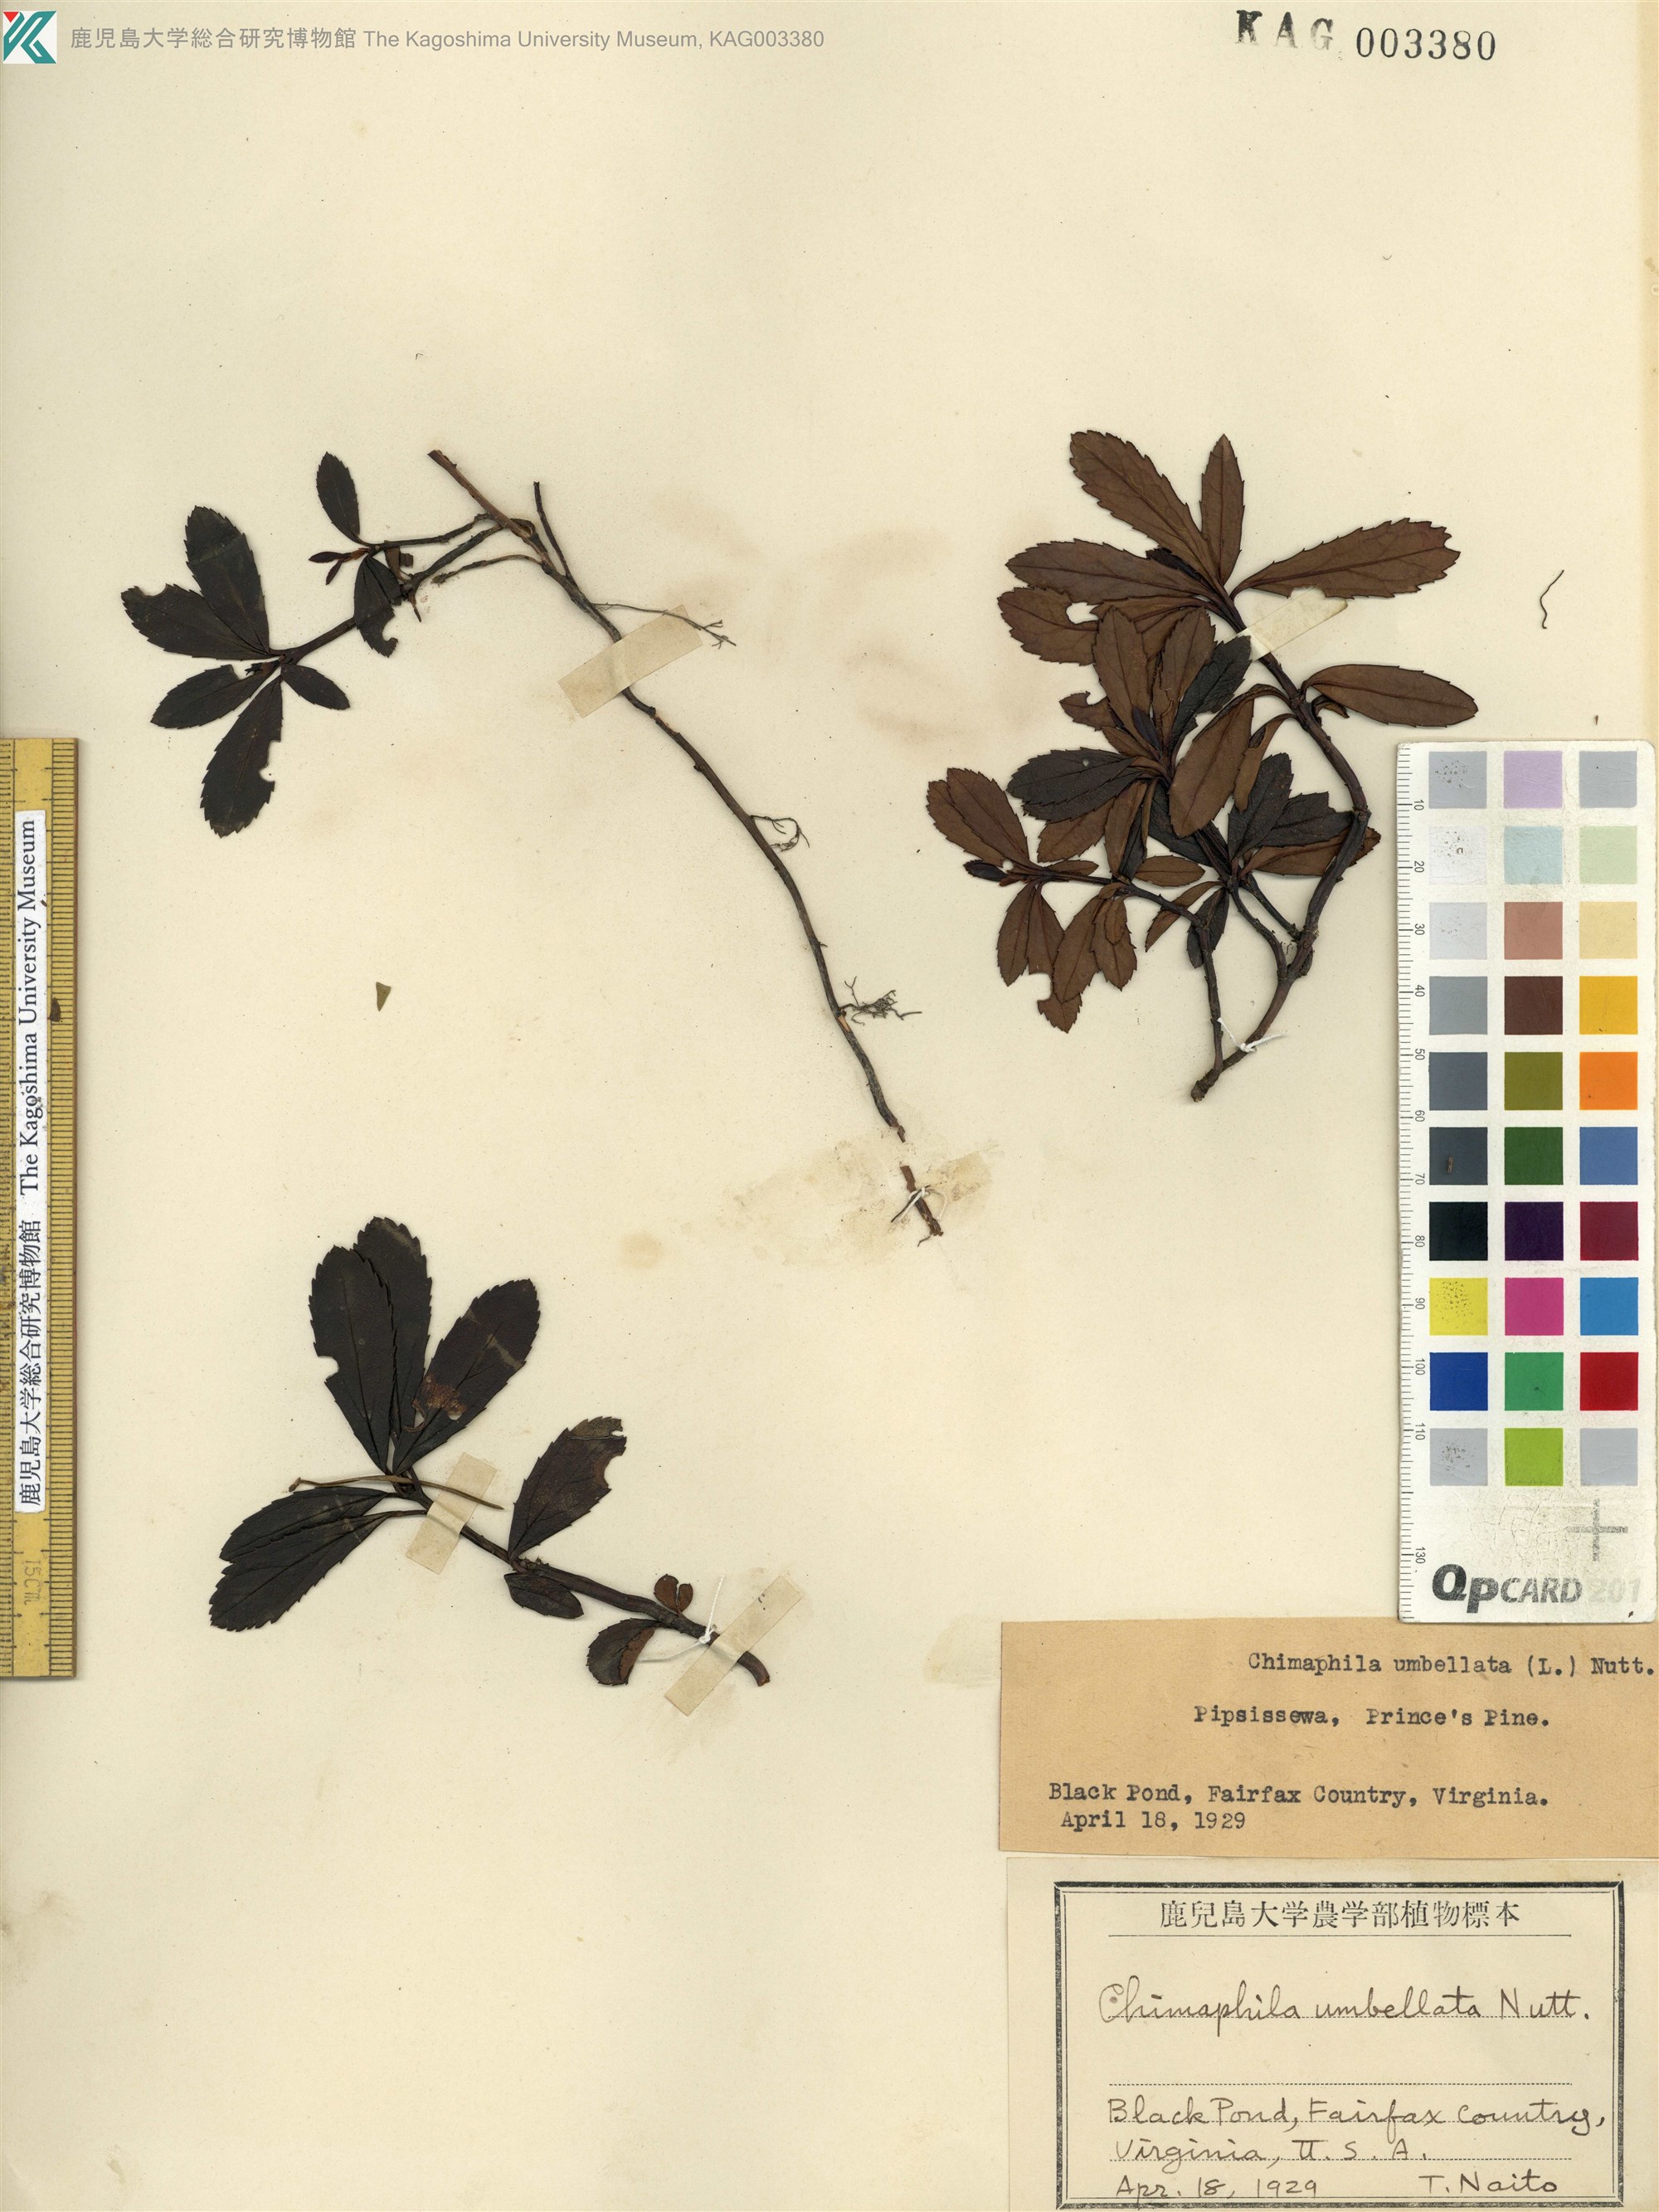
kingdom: Plantae
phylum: Tracheophyta
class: Magnoliopsida
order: Ericales
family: Ericaceae
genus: Chimaphila
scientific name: Chimaphila umbellata
